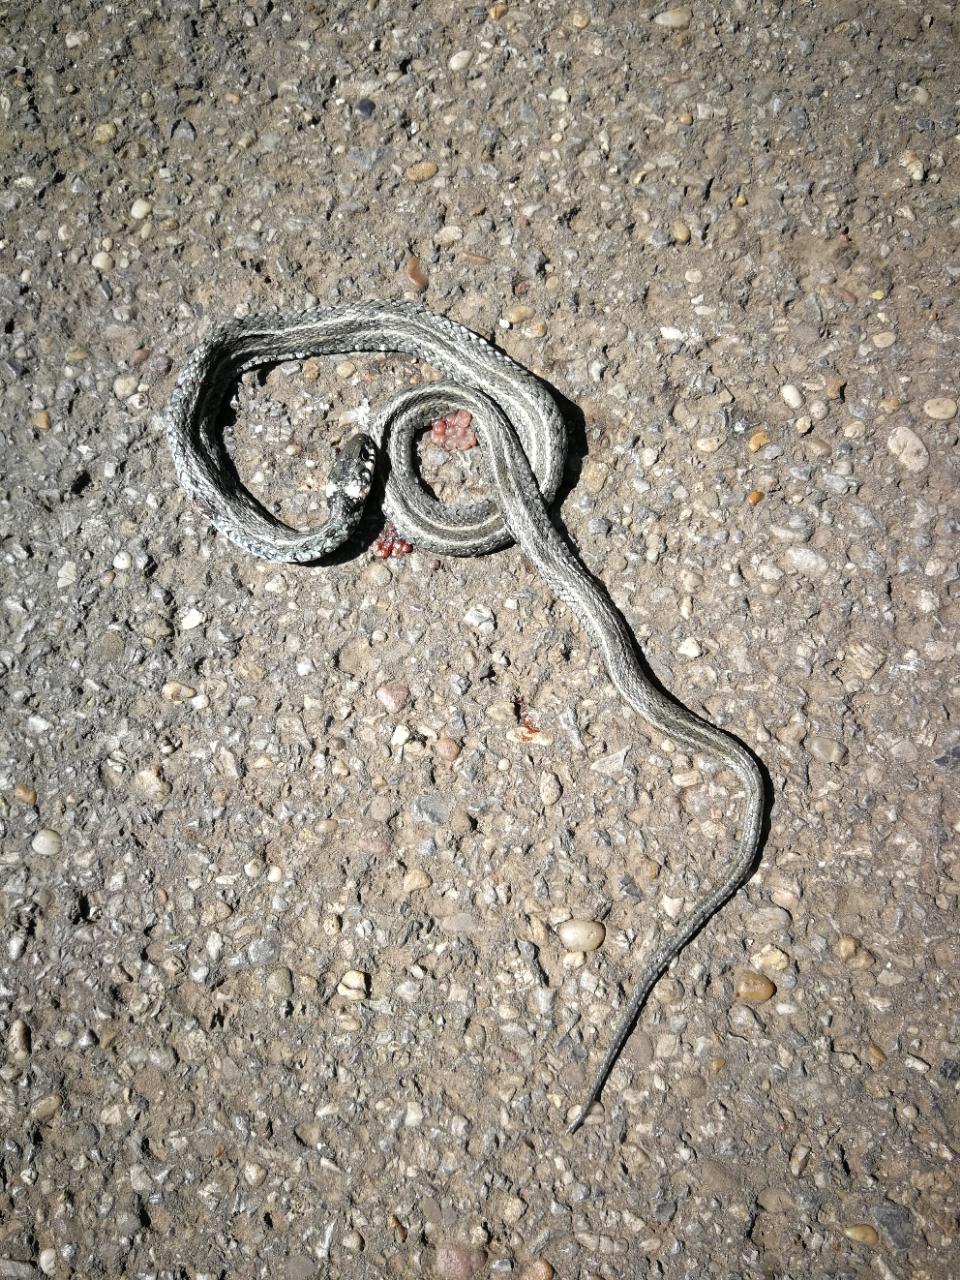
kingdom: Animalia
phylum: Chordata
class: Squamata
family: Colubridae
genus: Natrix
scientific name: Natrix natrix
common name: Grass snake
